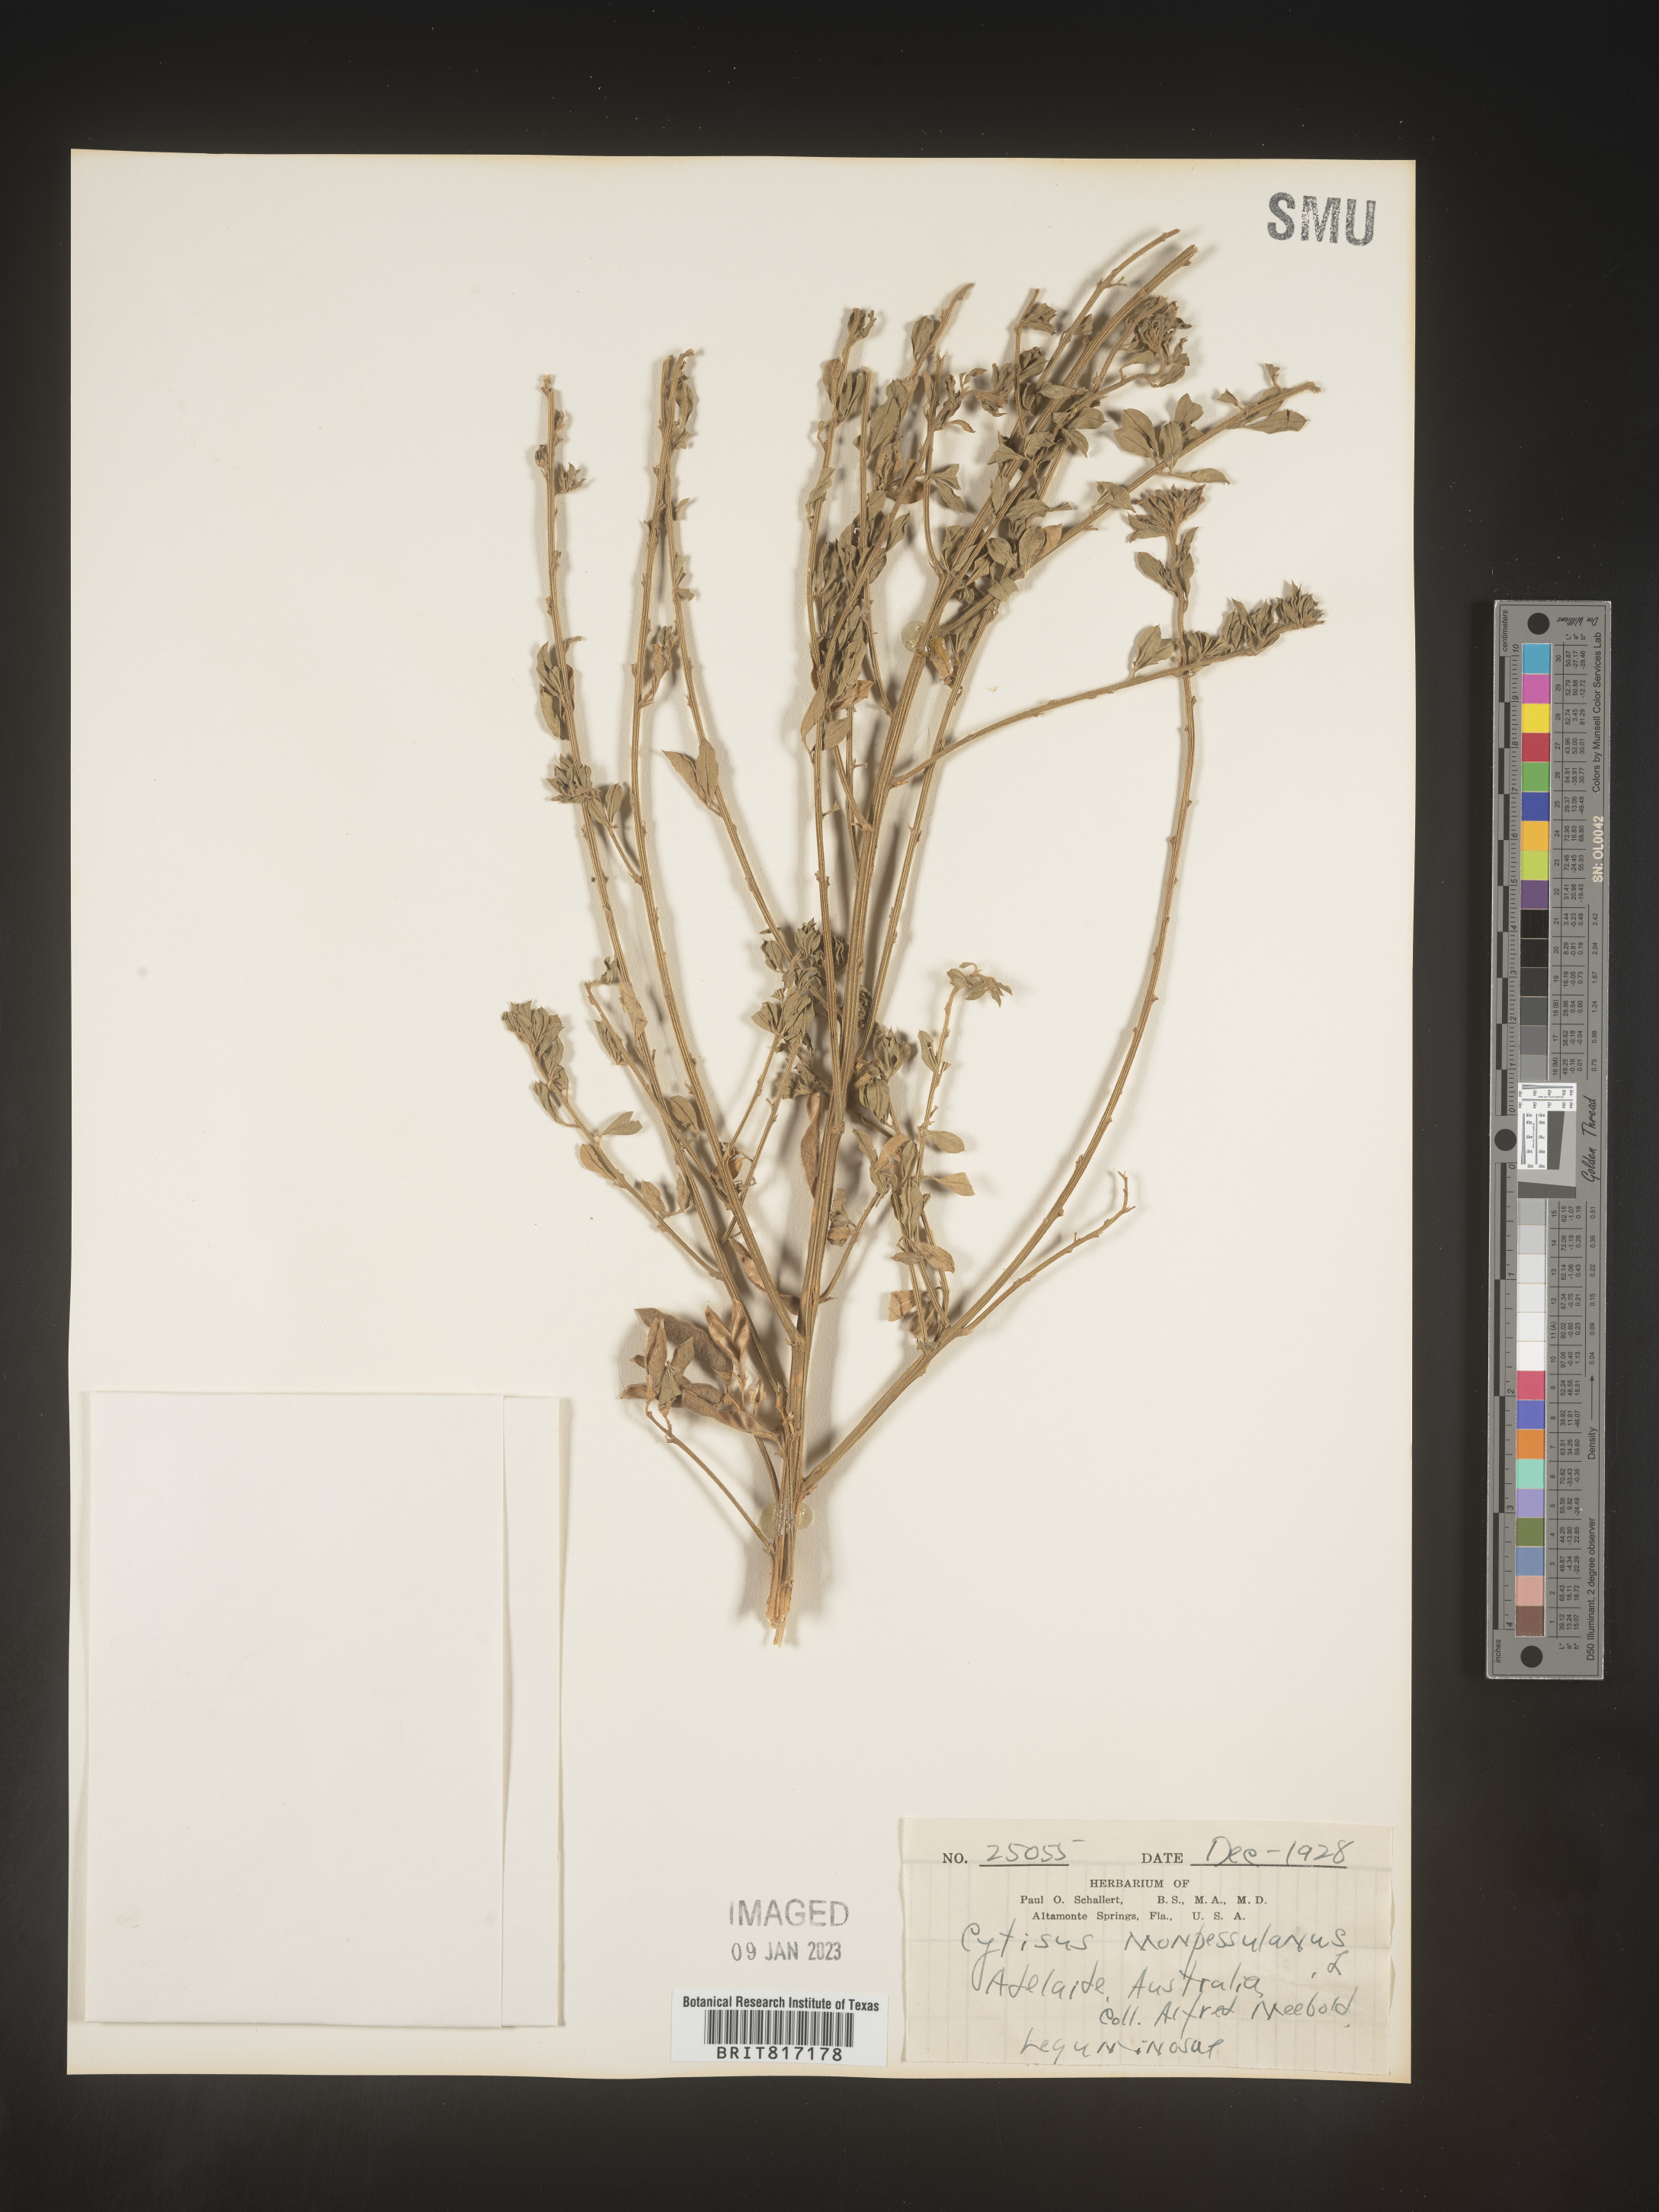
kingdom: Plantae
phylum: Tracheophyta
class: Magnoliopsida
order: Fabales
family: Fabaceae
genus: Cytisus
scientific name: Cytisus
